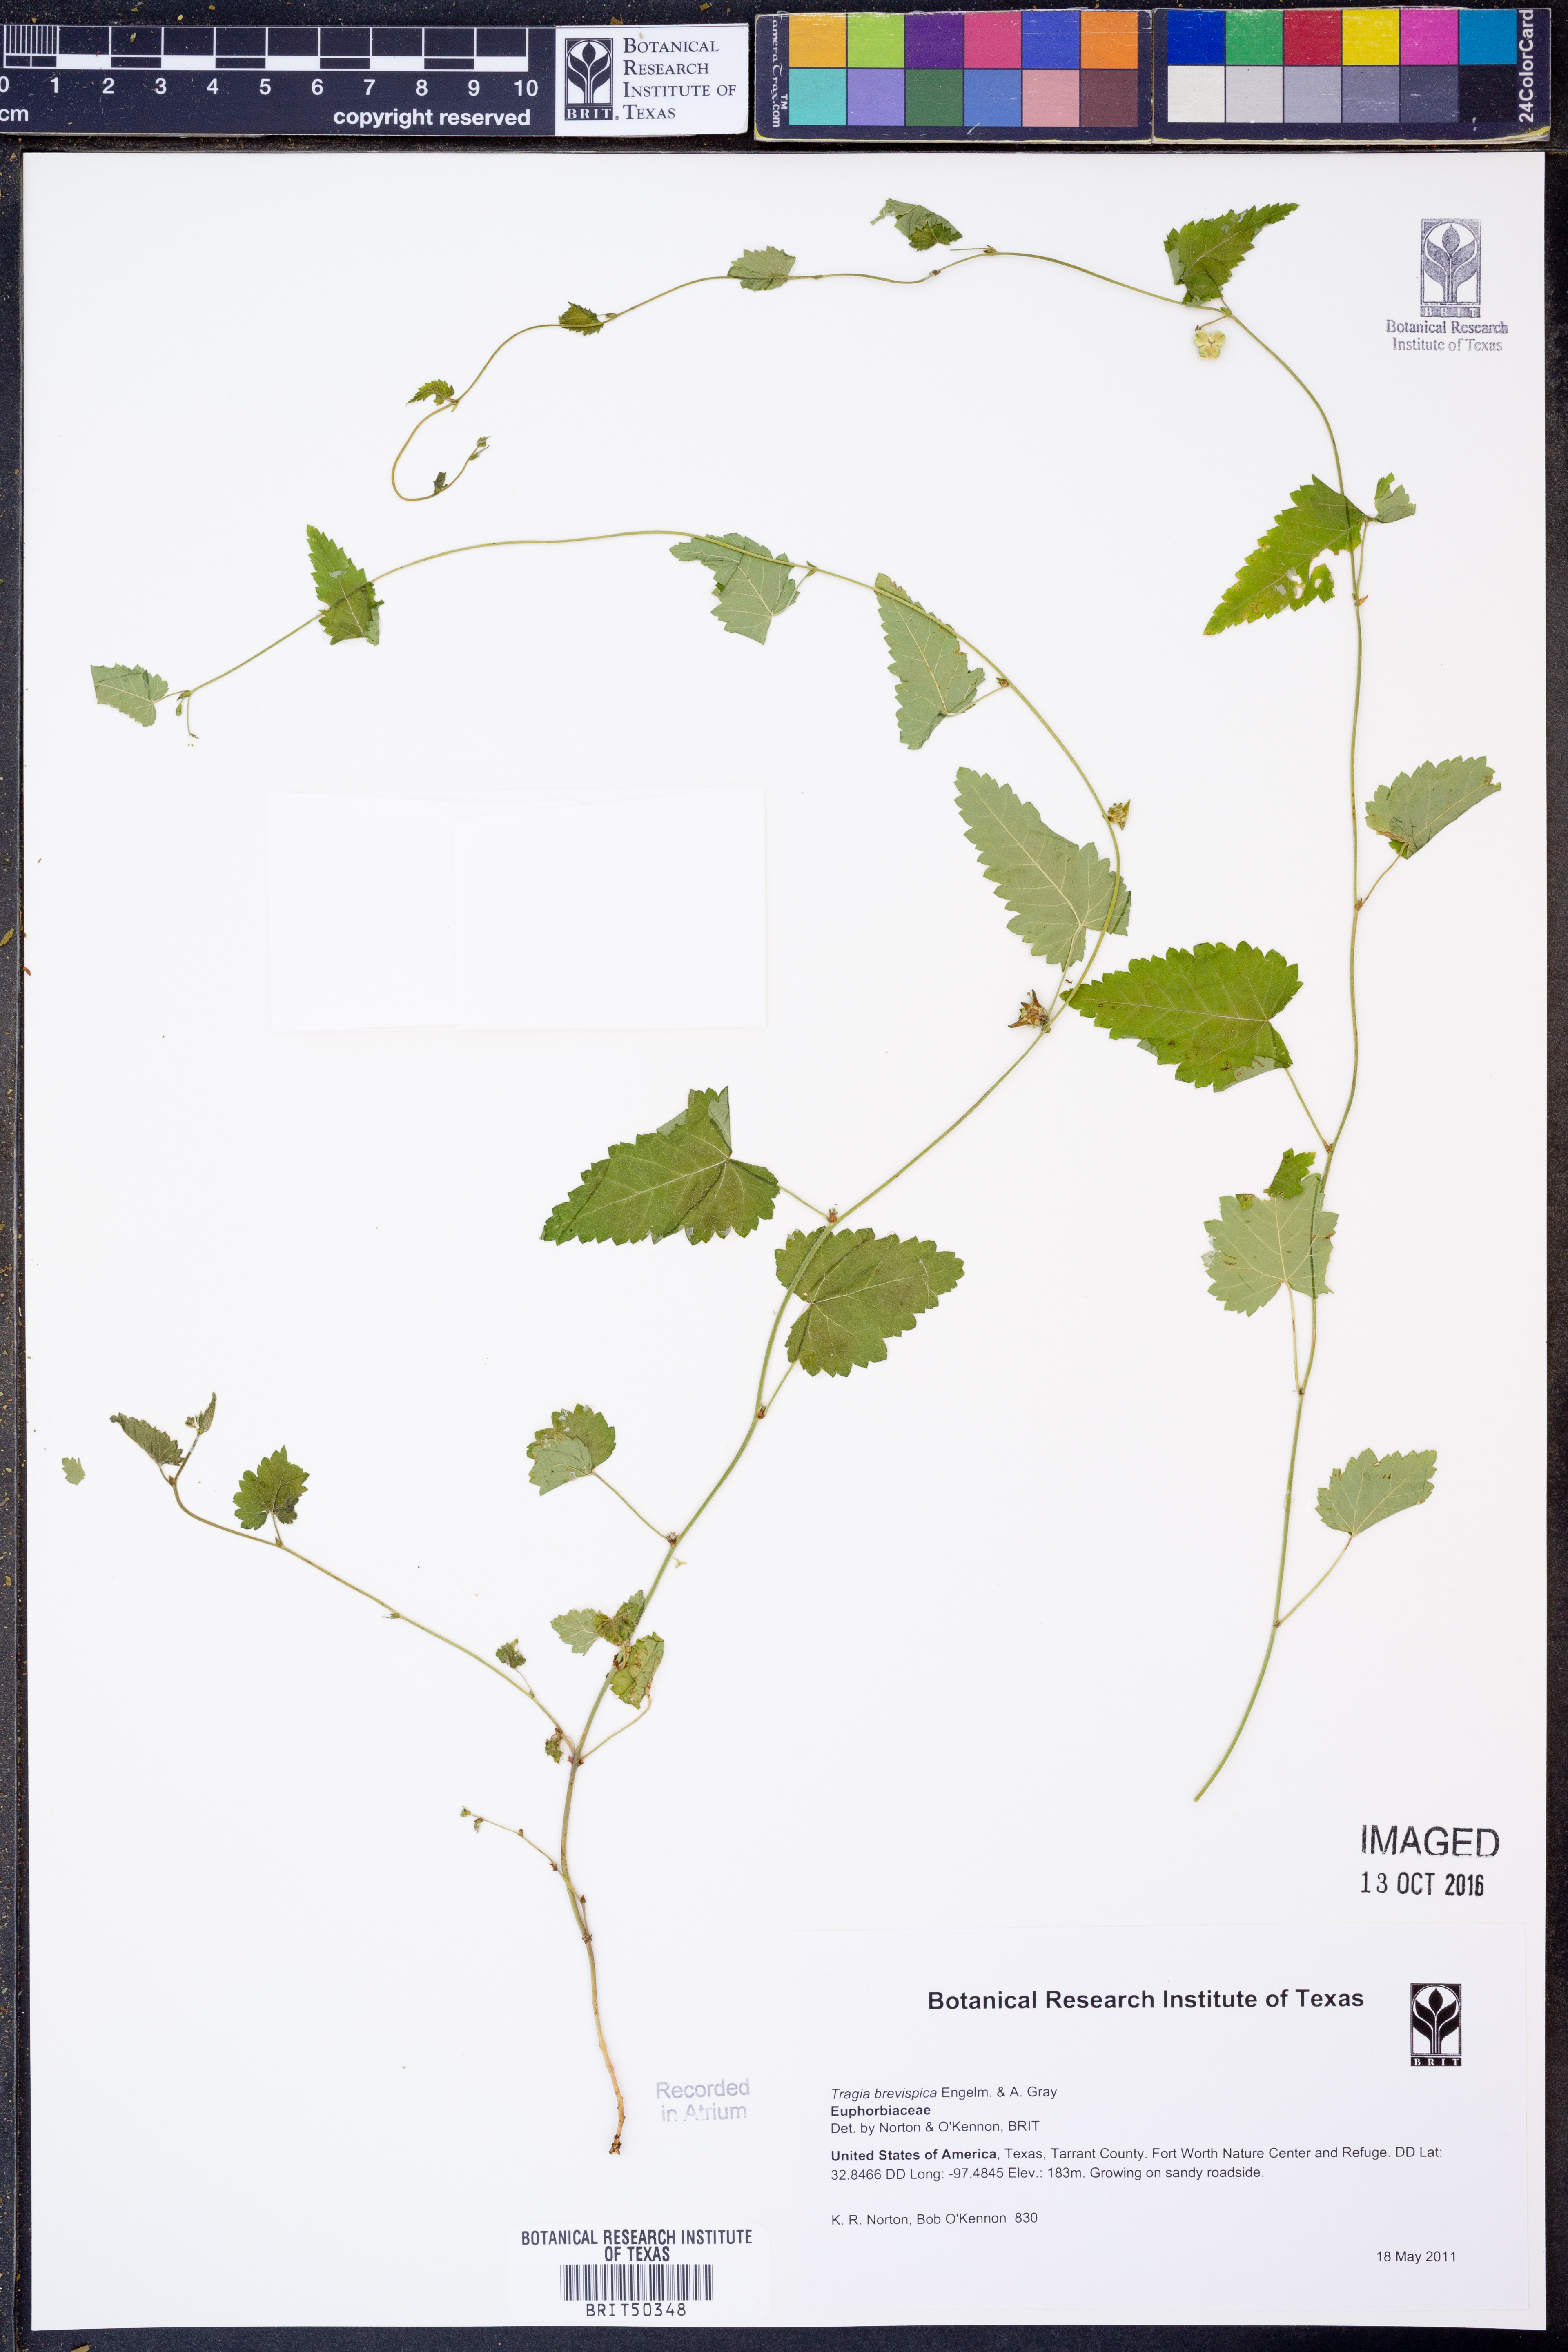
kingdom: Plantae
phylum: Tracheophyta
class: Magnoliopsida
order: Malpighiales
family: Euphorbiaceae
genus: Tragia
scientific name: Tragia brevispica
